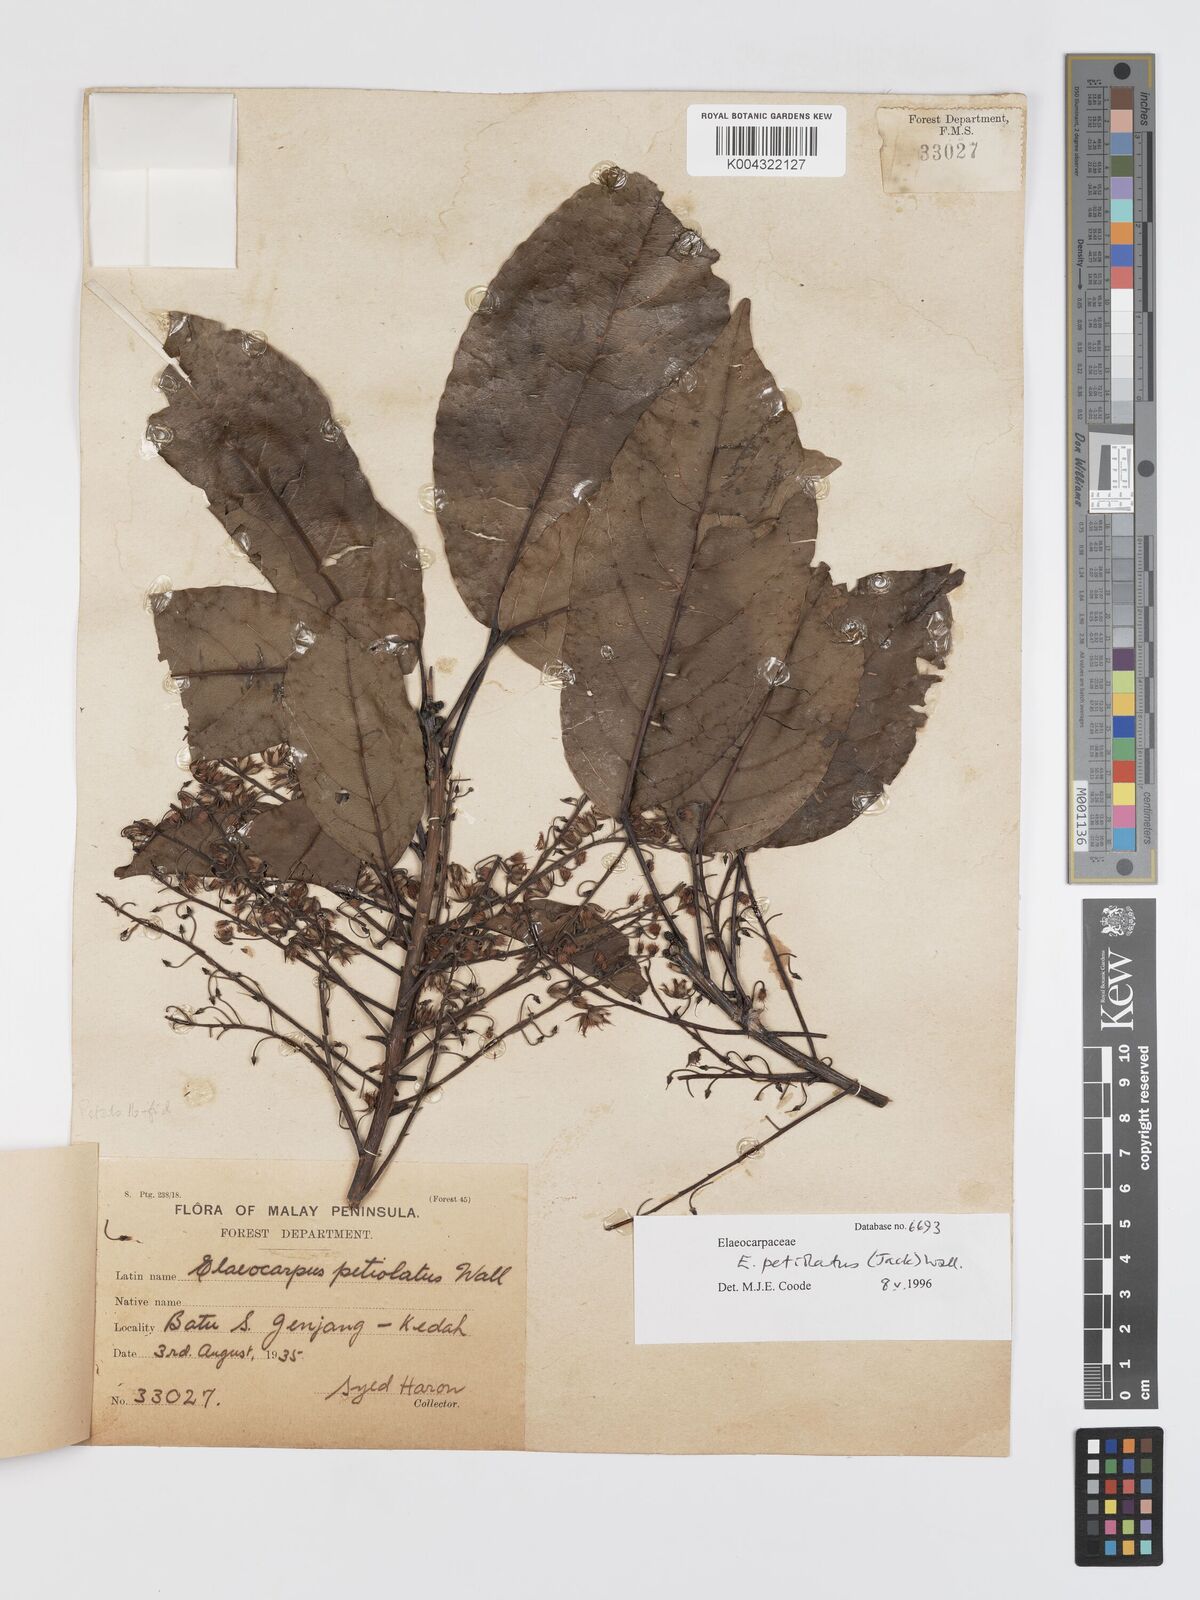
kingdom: Plantae
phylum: Tracheophyta
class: Magnoliopsida
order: Oxalidales
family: Elaeocarpaceae
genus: Elaeocarpus
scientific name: Elaeocarpus petiolatus
